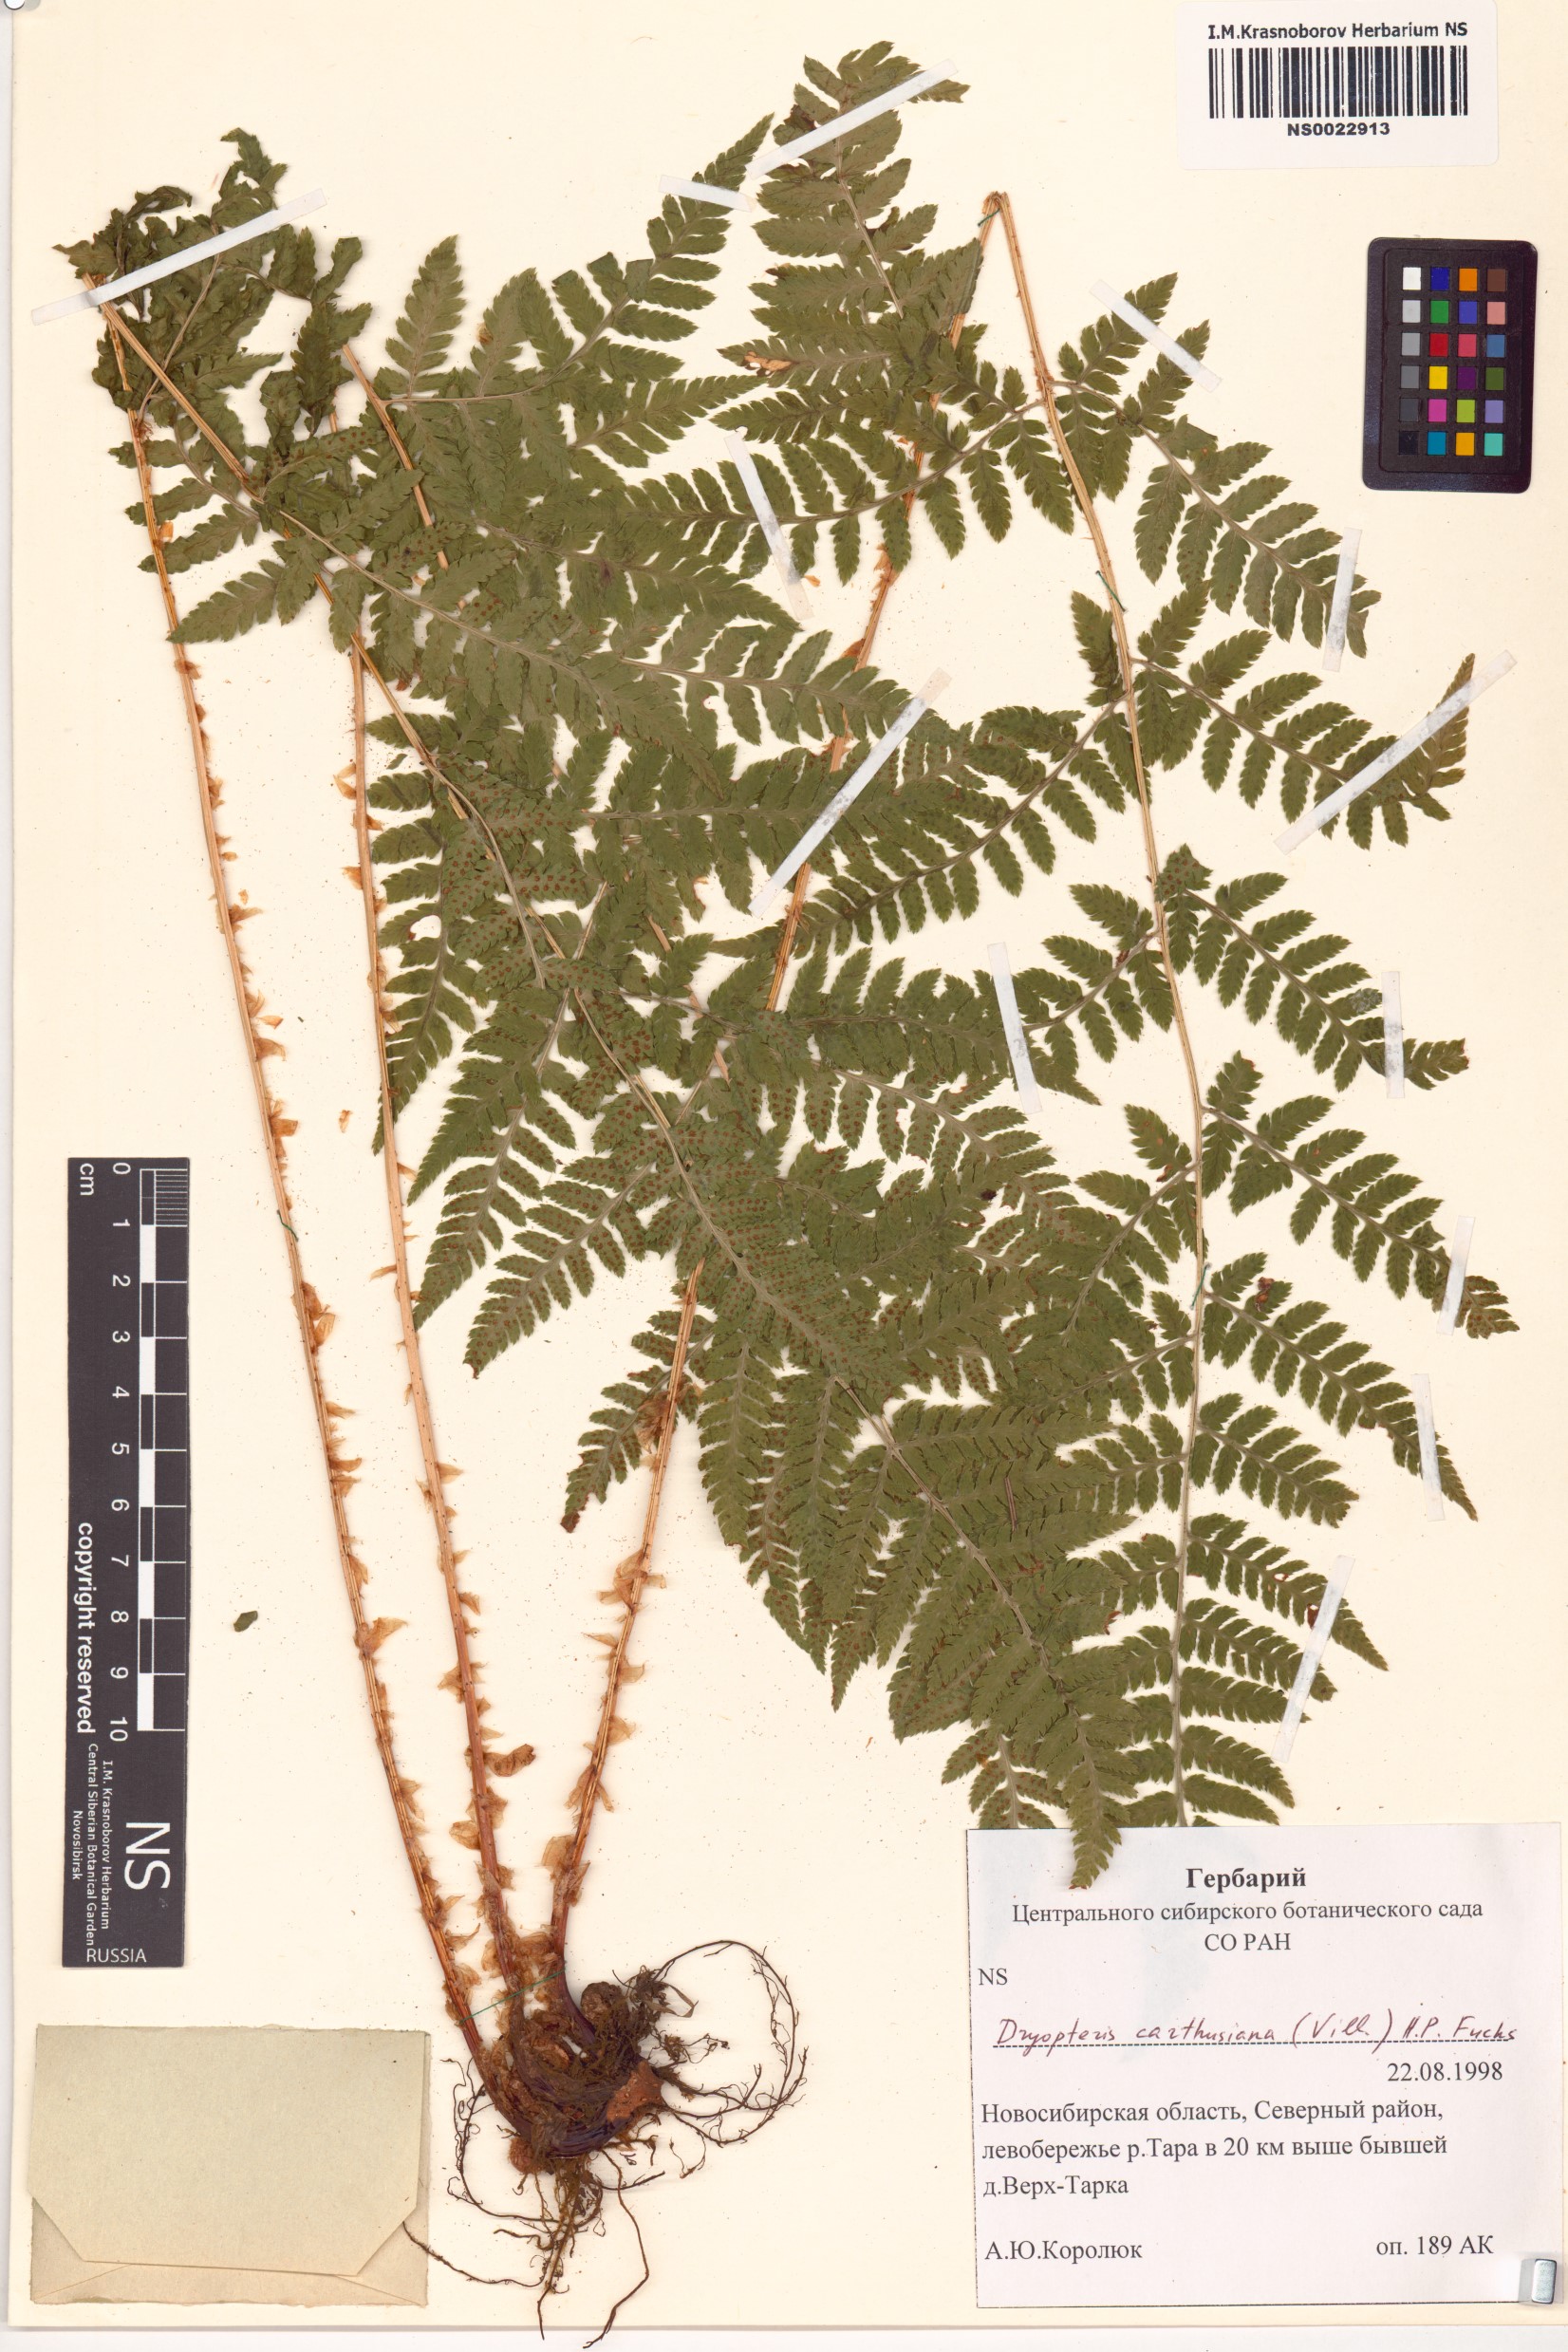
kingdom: Plantae
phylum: Tracheophyta
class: Polypodiopsida
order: Polypodiales
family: Dryopteridaceae
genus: Dryopteris
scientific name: Dryopteris carthusiana
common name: Narrow buckler-fern
